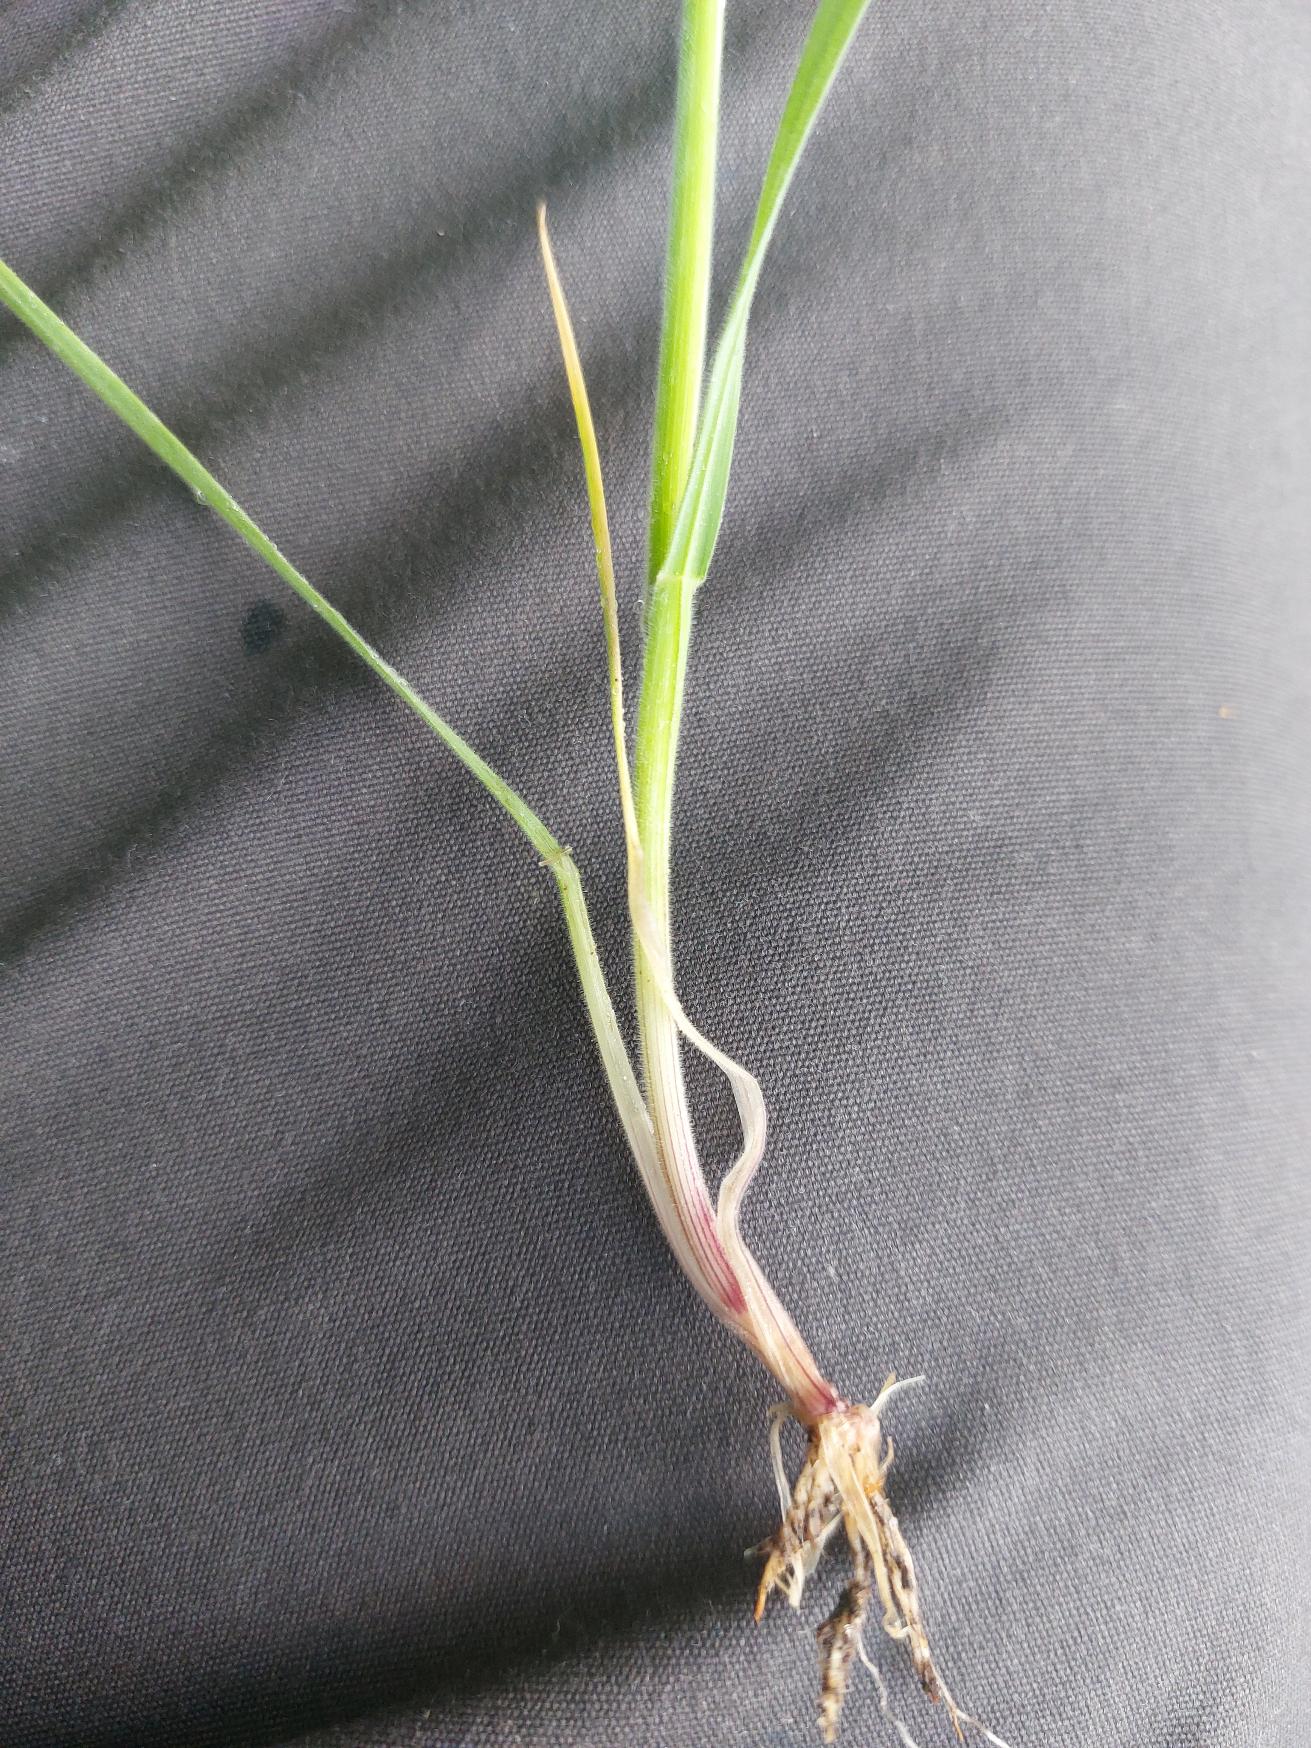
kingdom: Plantae
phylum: Tracheophyta
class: Liliopsida
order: Poales
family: Poaceae
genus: Holcus
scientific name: Holcus lanatus
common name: Fløjlsgræs
